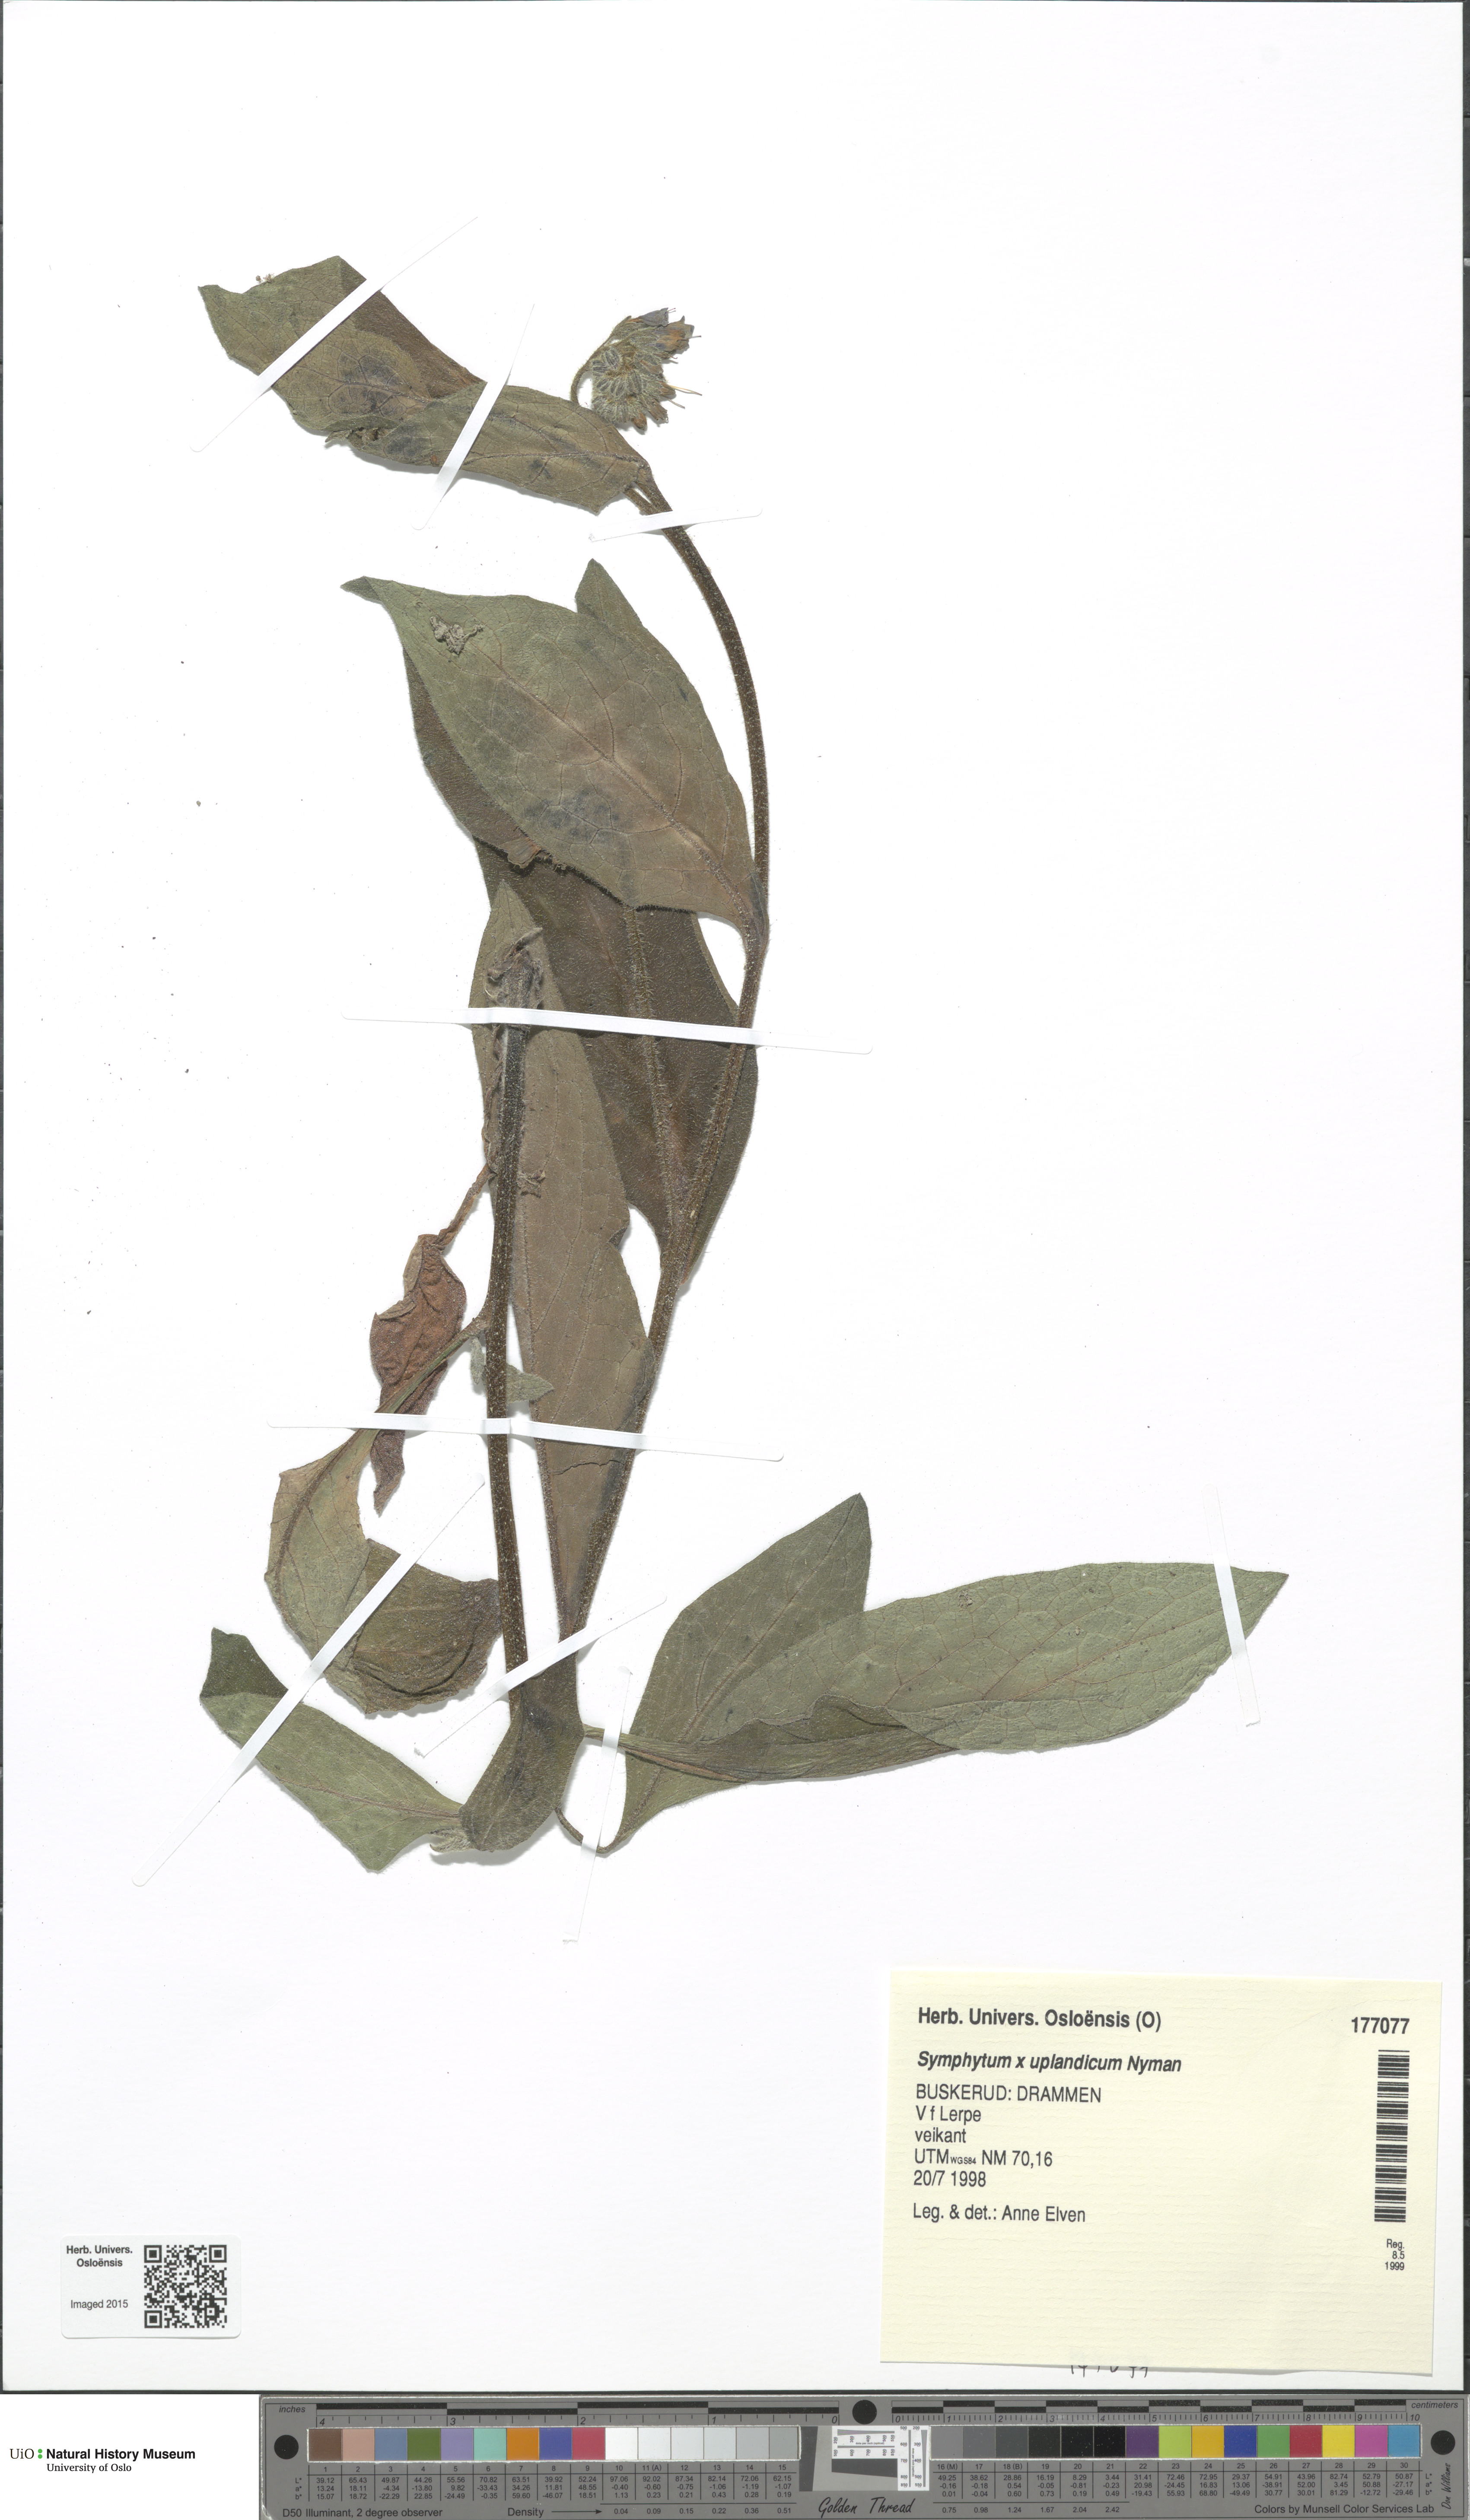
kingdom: Plantae
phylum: Tracheophyta
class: Magnoliopsida
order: Boraginales
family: Boraginaceae
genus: Symphytum
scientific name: Symphytum uplandicum
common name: Russian comfrey
